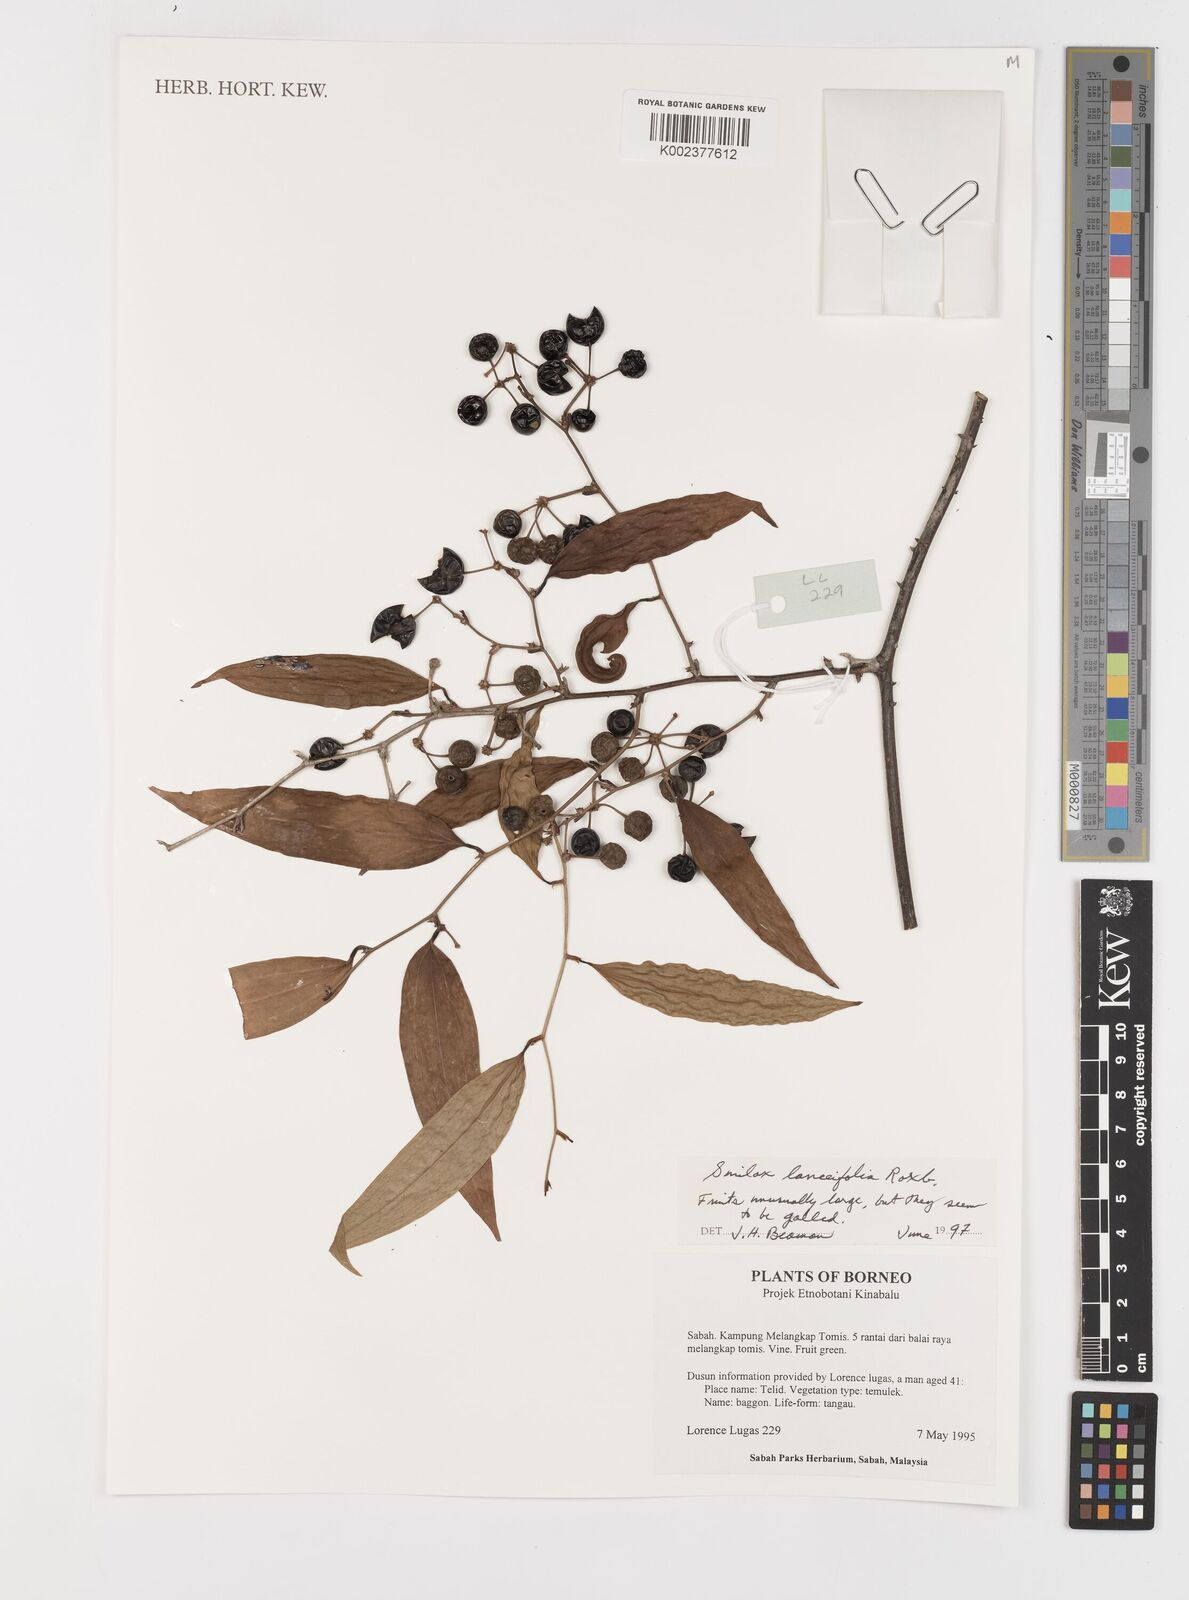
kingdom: Plantae
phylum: Tracheophyta
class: Liliopsida
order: Liliales
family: Smilacaceae
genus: Smilax
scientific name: Smilax lanceifolia
